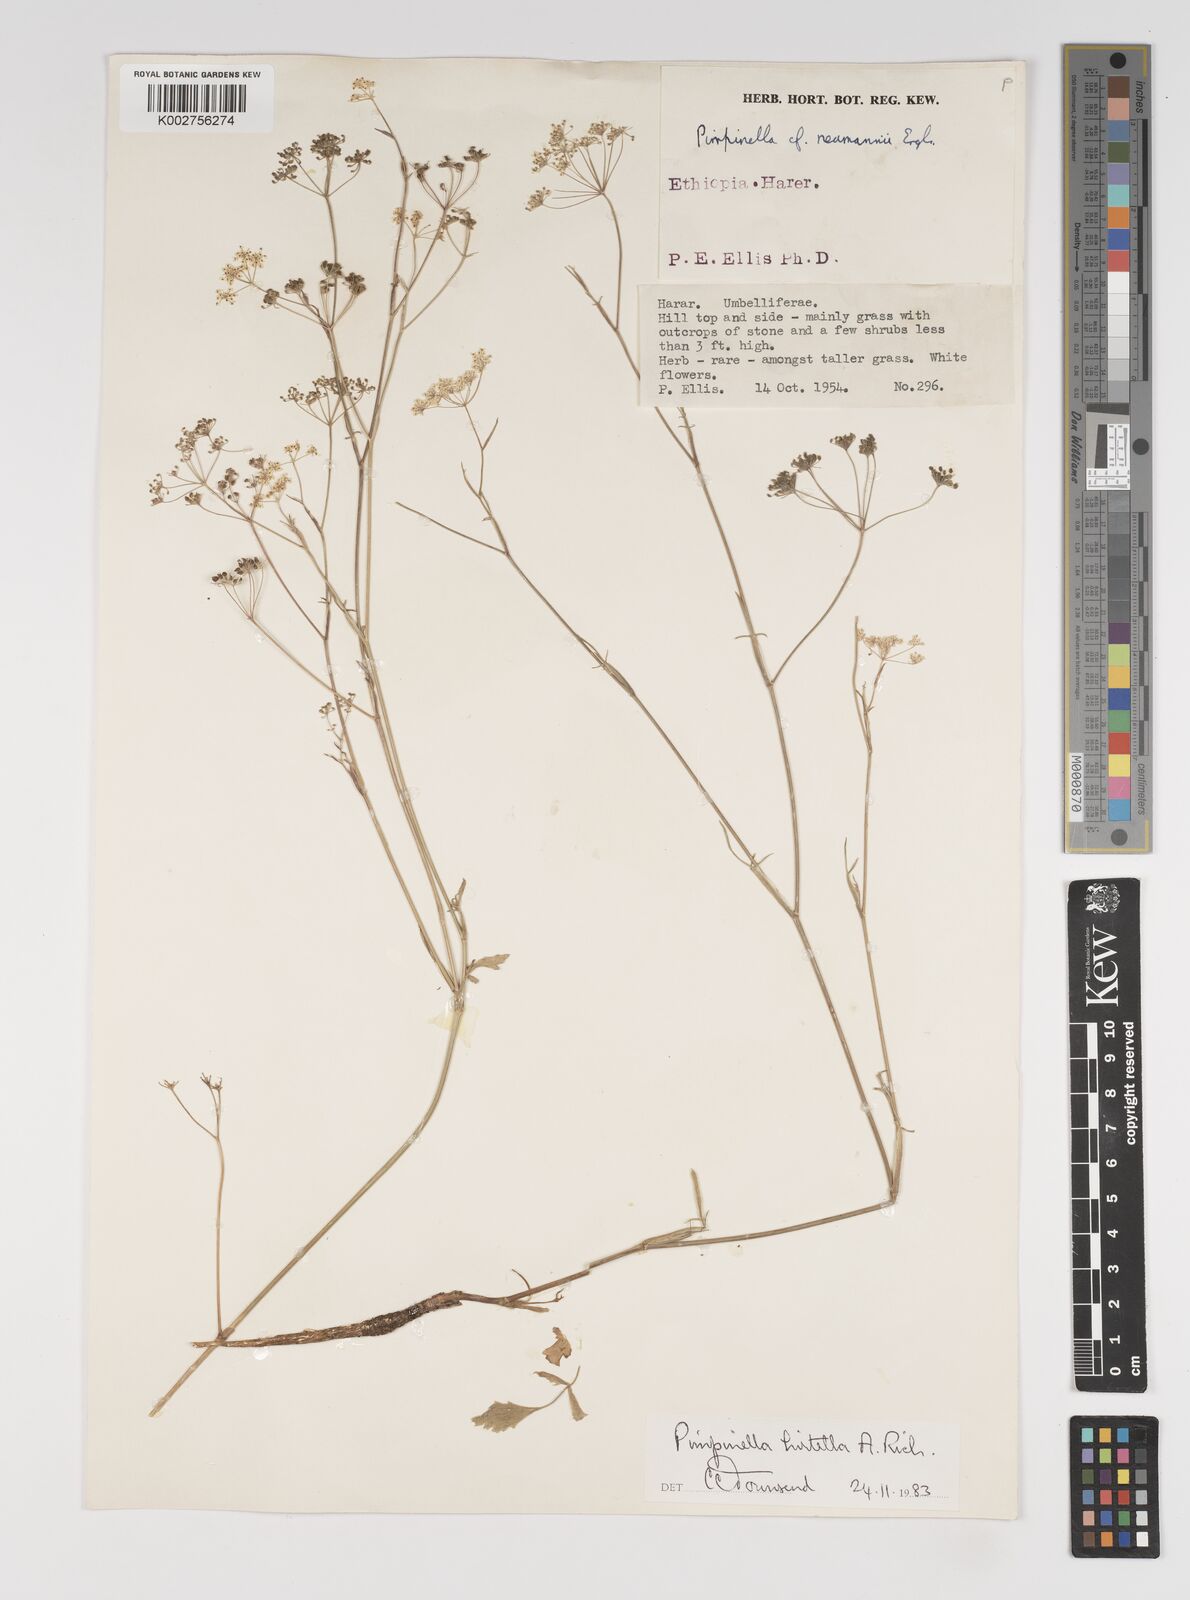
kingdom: Plantae
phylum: Tracheophyta
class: Magnoliopsida
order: Apiales
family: Apiaceae
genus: Pimpinella
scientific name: Pimpinella hirtella
